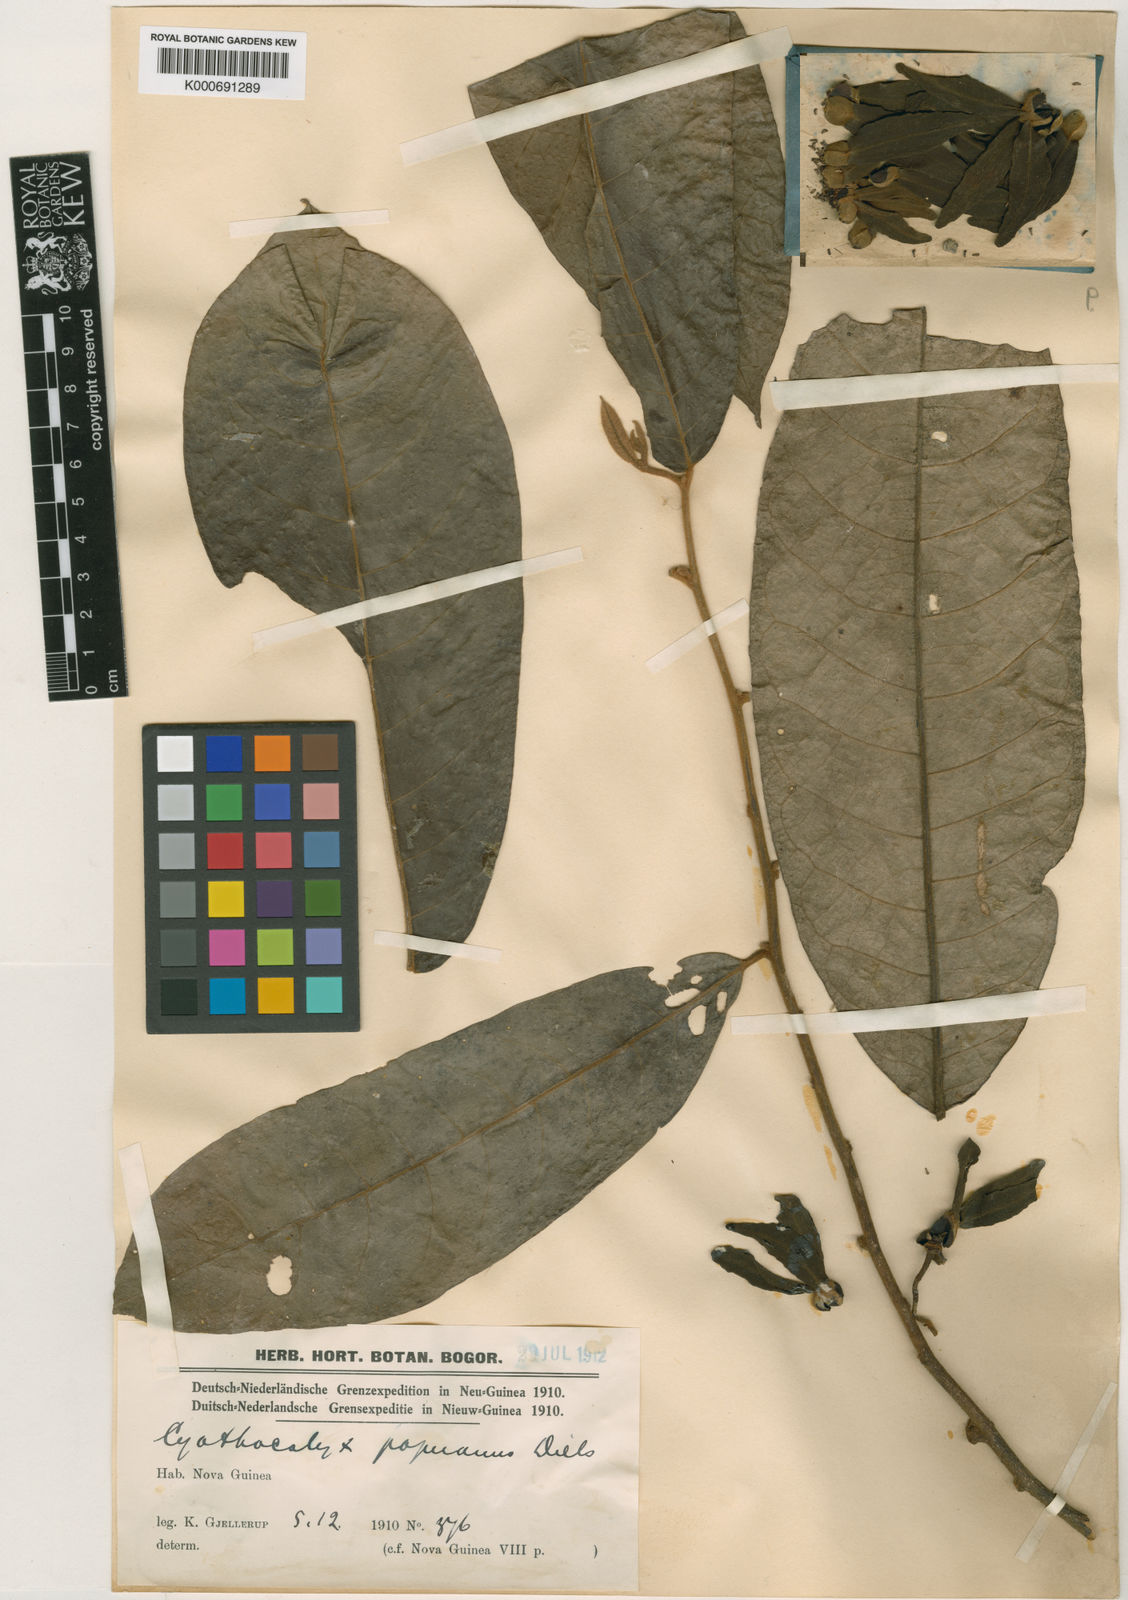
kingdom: Plantae
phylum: Tracheophyta
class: Magnoliopsida
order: Magnoliales
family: Annonaceae
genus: Drepananthus
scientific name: Drepananthus cauliflorus
